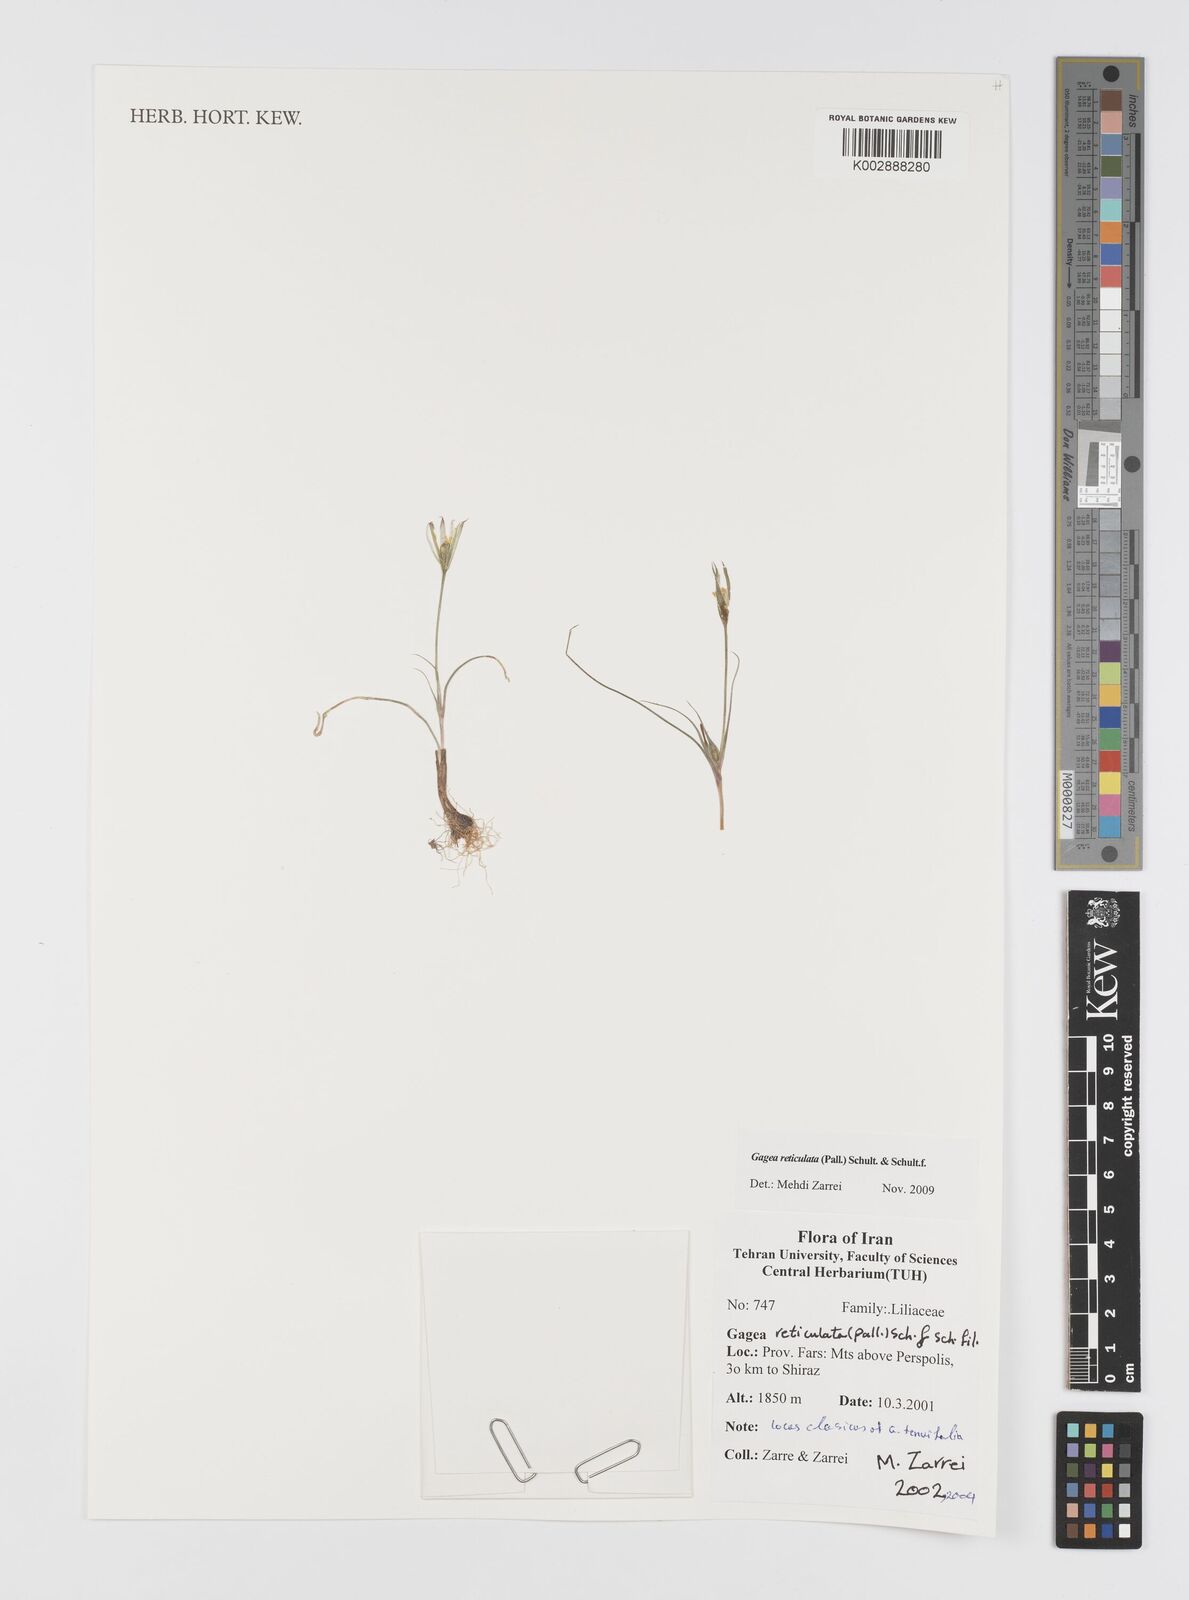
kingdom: Plantae
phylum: Tracheophyta
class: Liliopsida
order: Liliales
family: Liliaceae
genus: Gagea
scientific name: Gagea reticulata
